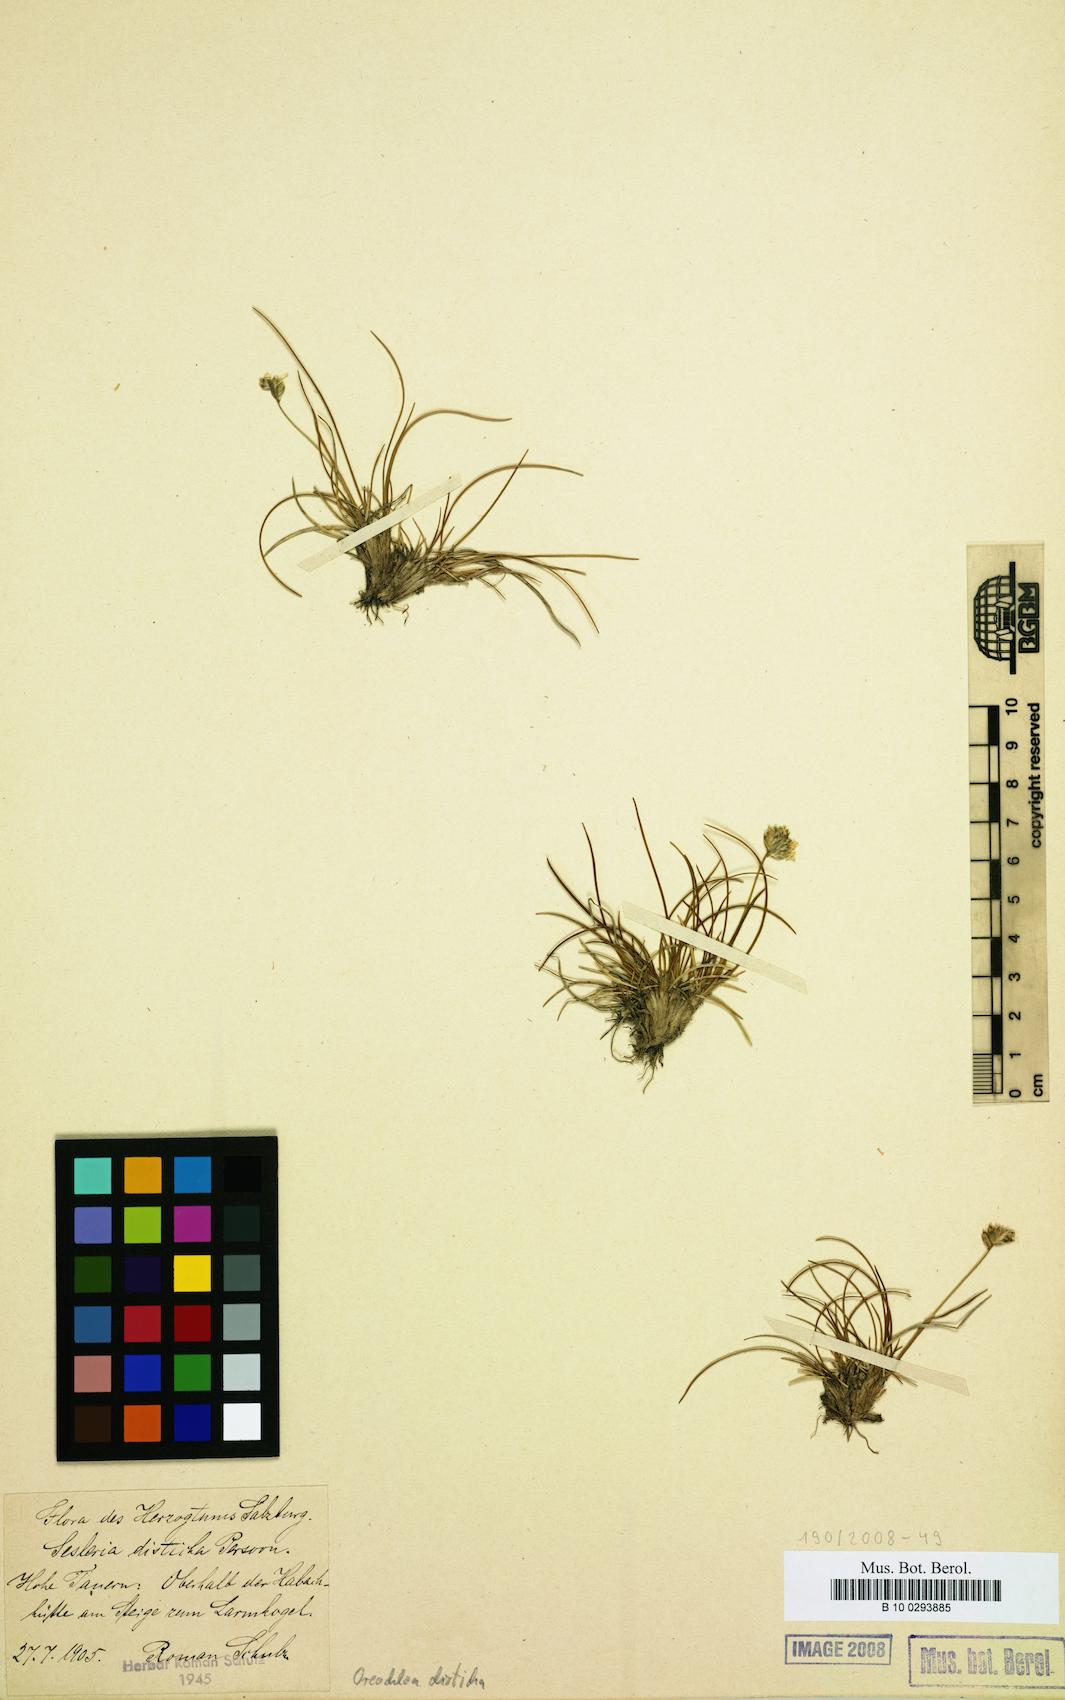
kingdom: Plantae
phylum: Tracheophyta
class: Liliopsida
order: Poales
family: Poaceae
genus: Oreochloa
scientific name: Oreochloa disticha
